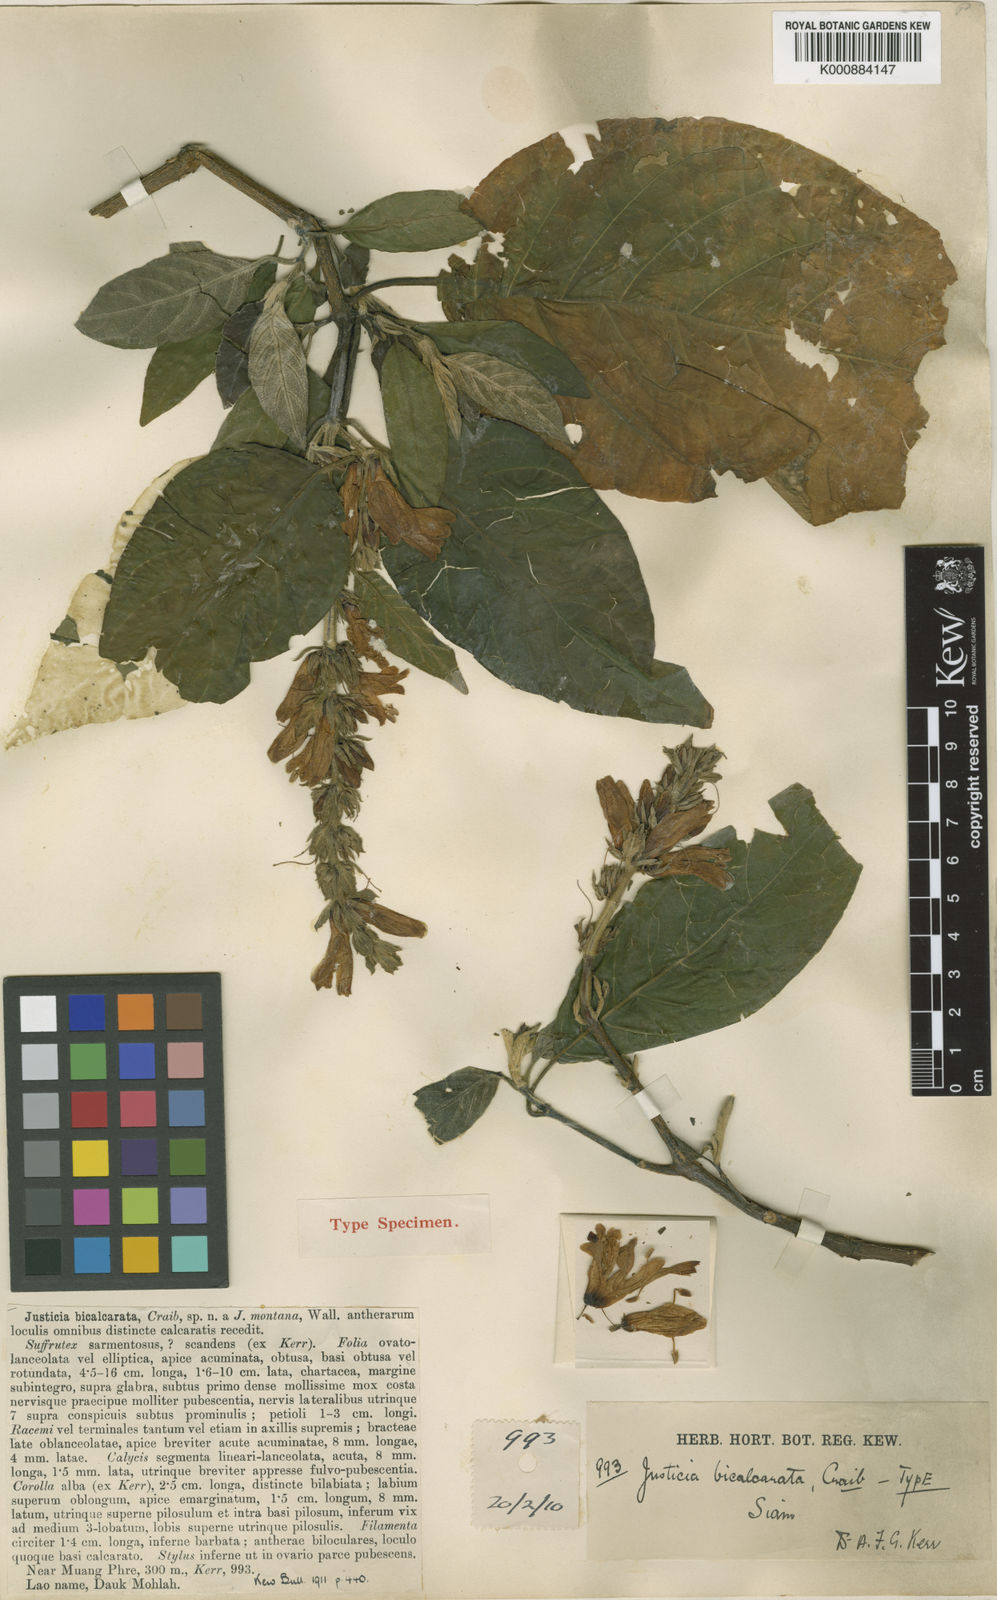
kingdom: Plantae
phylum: Tracheophyta
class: Magnoliopsida
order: Lamiales
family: Acanthaceae
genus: Justicia
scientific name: Justicia bicalcarata
